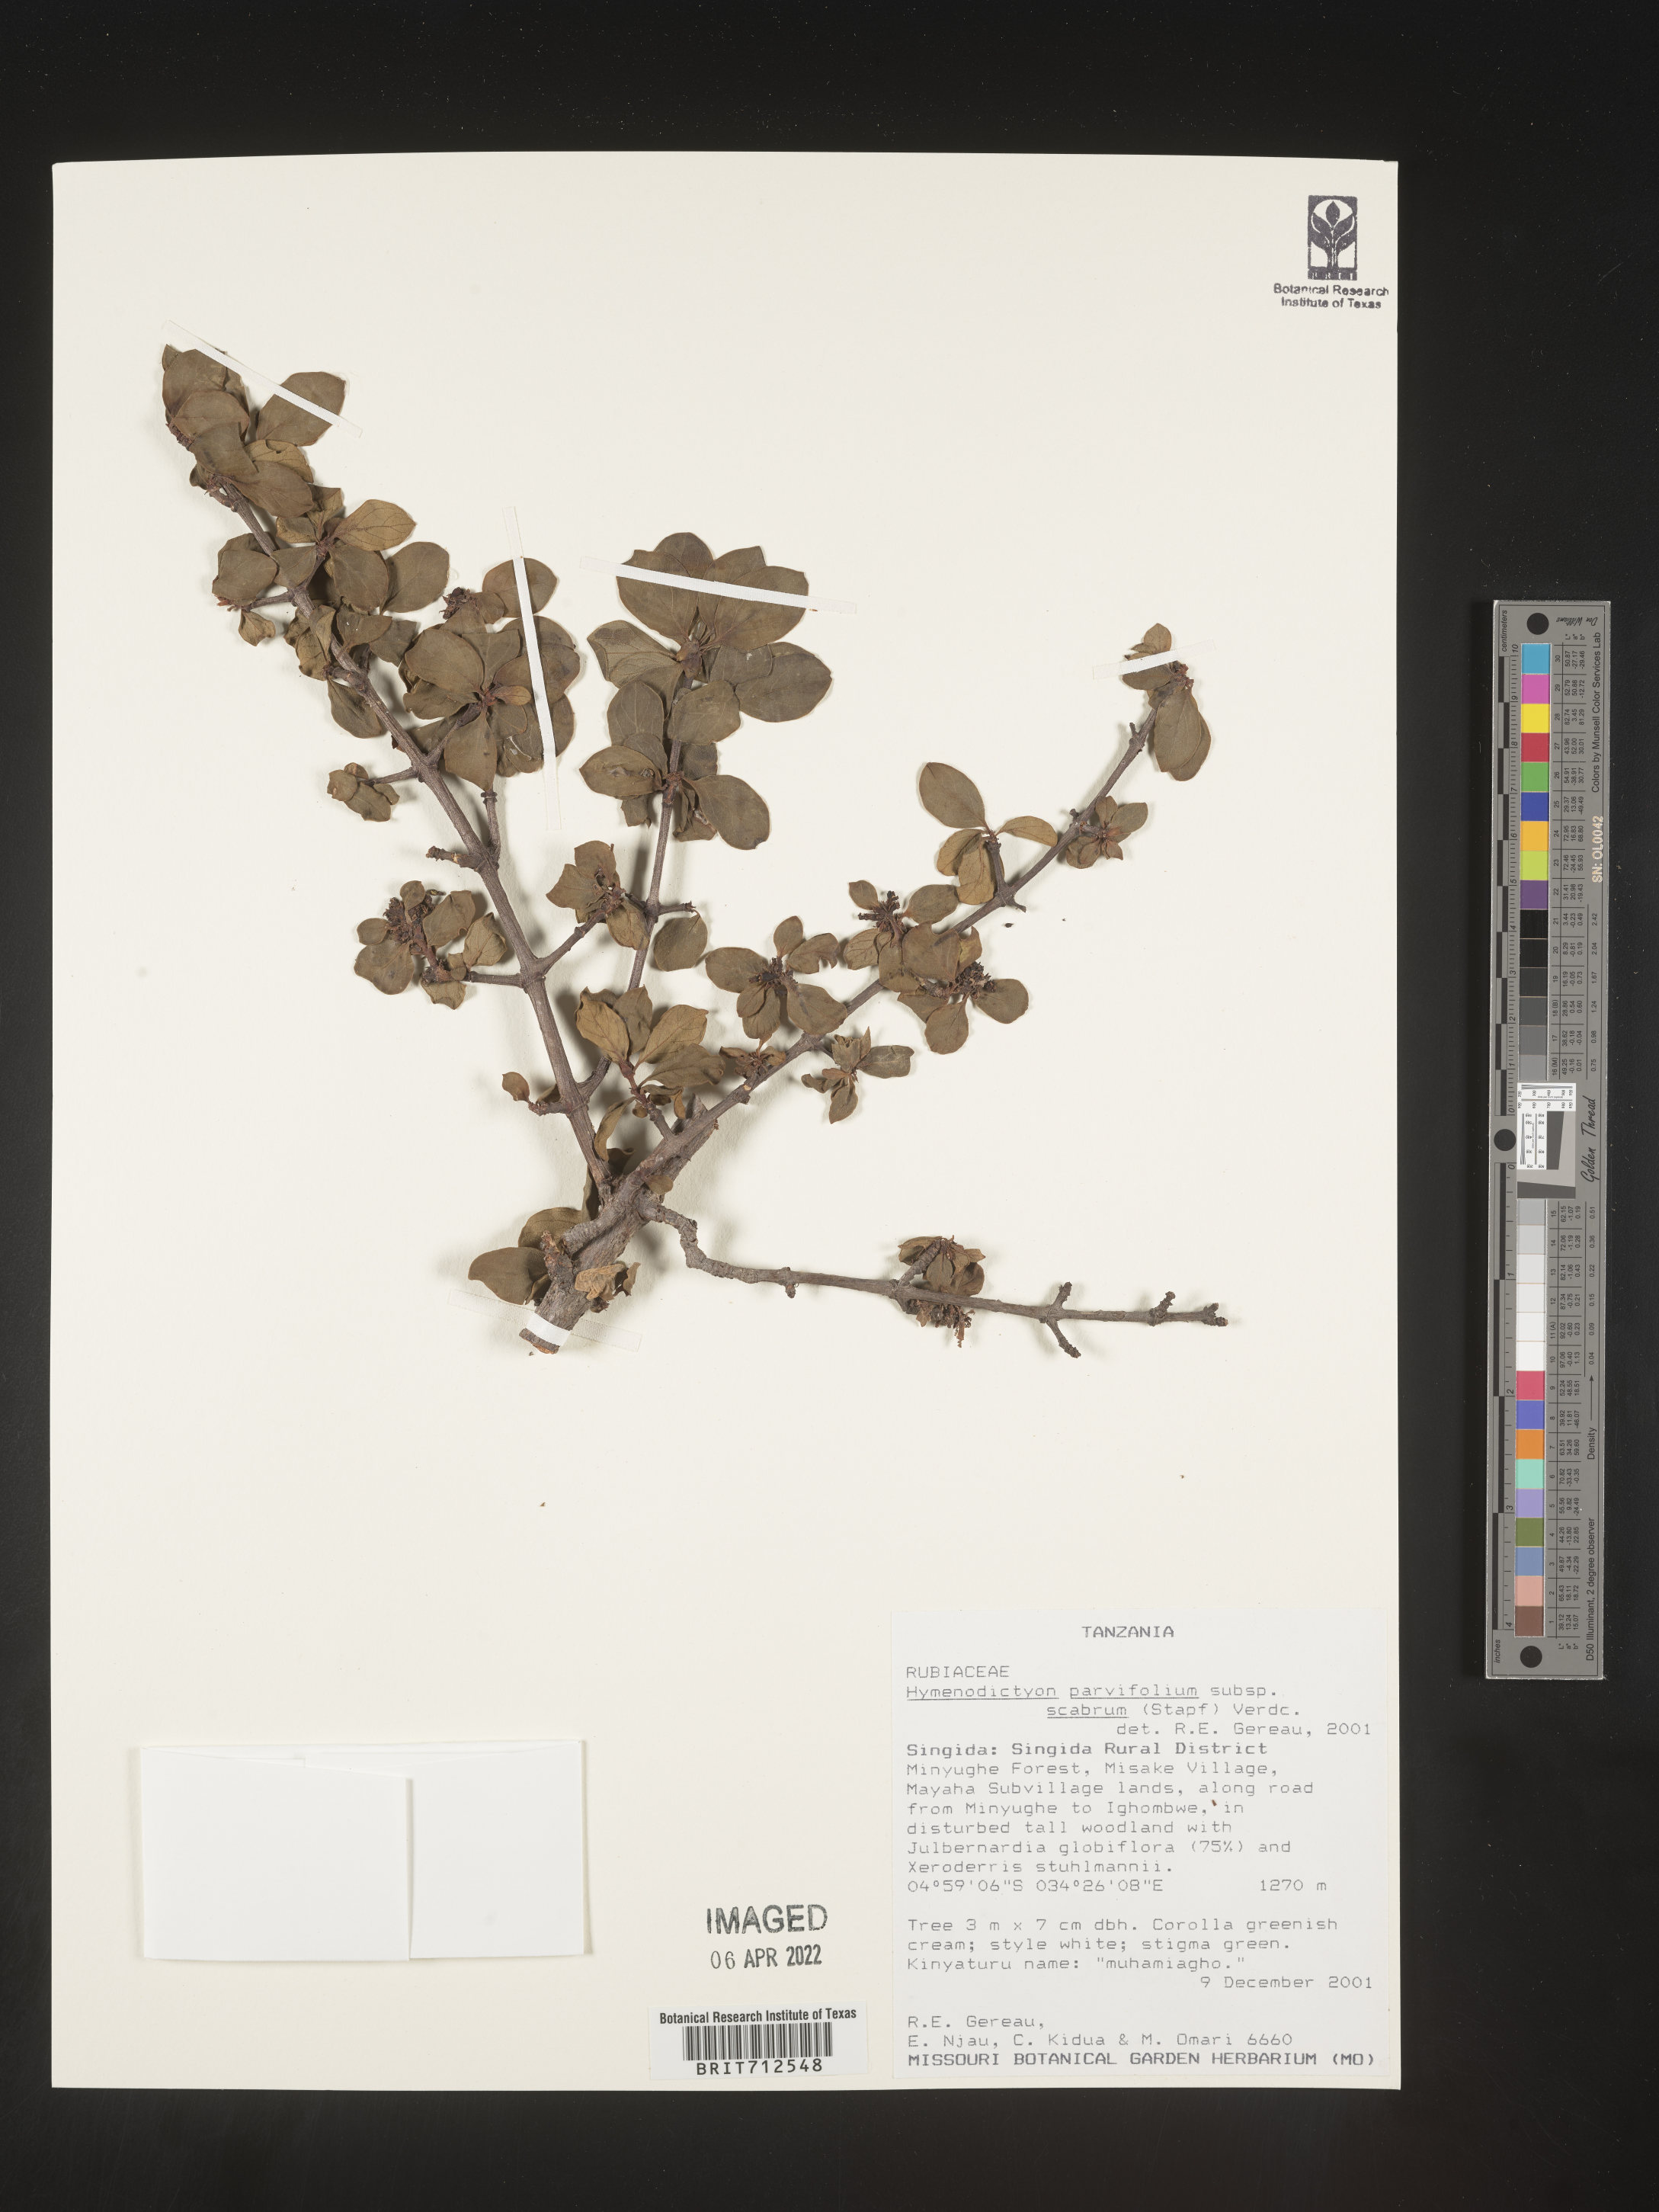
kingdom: Plantae
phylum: Tracheophyta
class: Magnoliopsida
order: Gentianales
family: Rubiaceae
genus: Hymenodictyon
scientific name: Hymenodictyon
